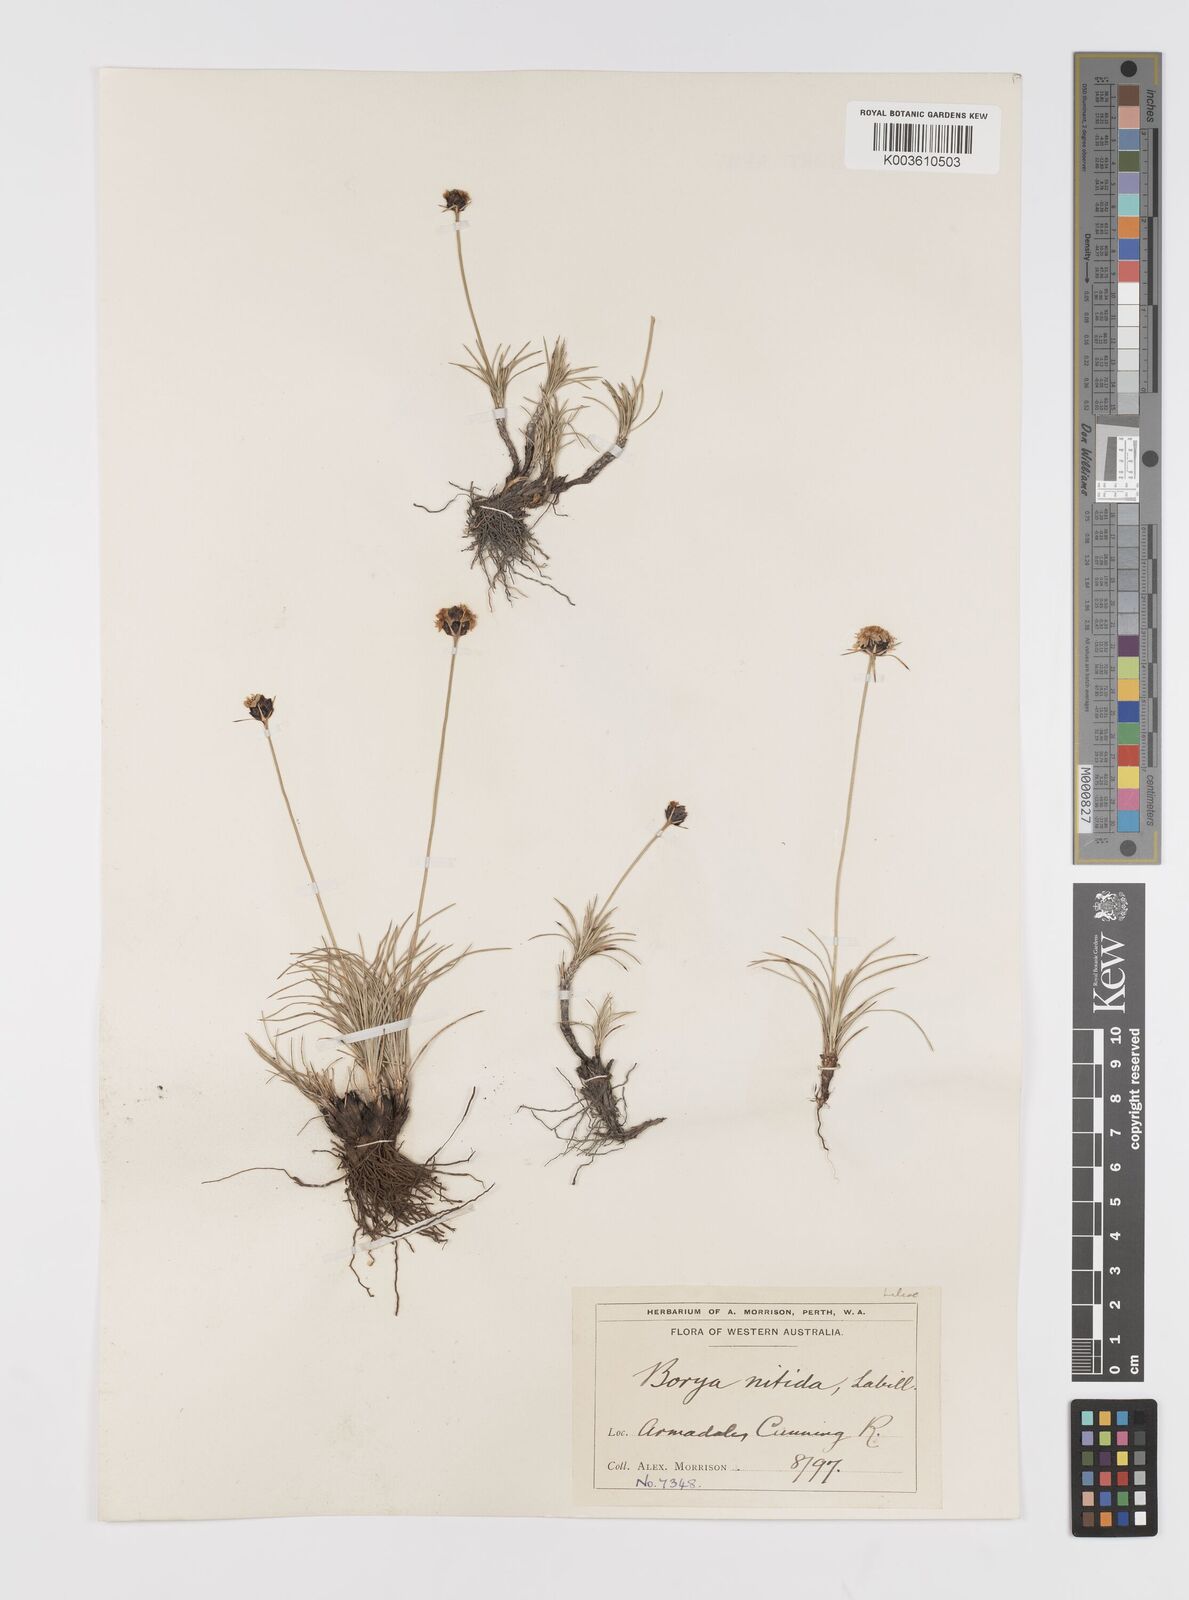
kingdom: Plantae
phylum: Tracheophyta
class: Liliopsida
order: Asparagales
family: Boryaceae
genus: Borya
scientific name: Borya nitida
